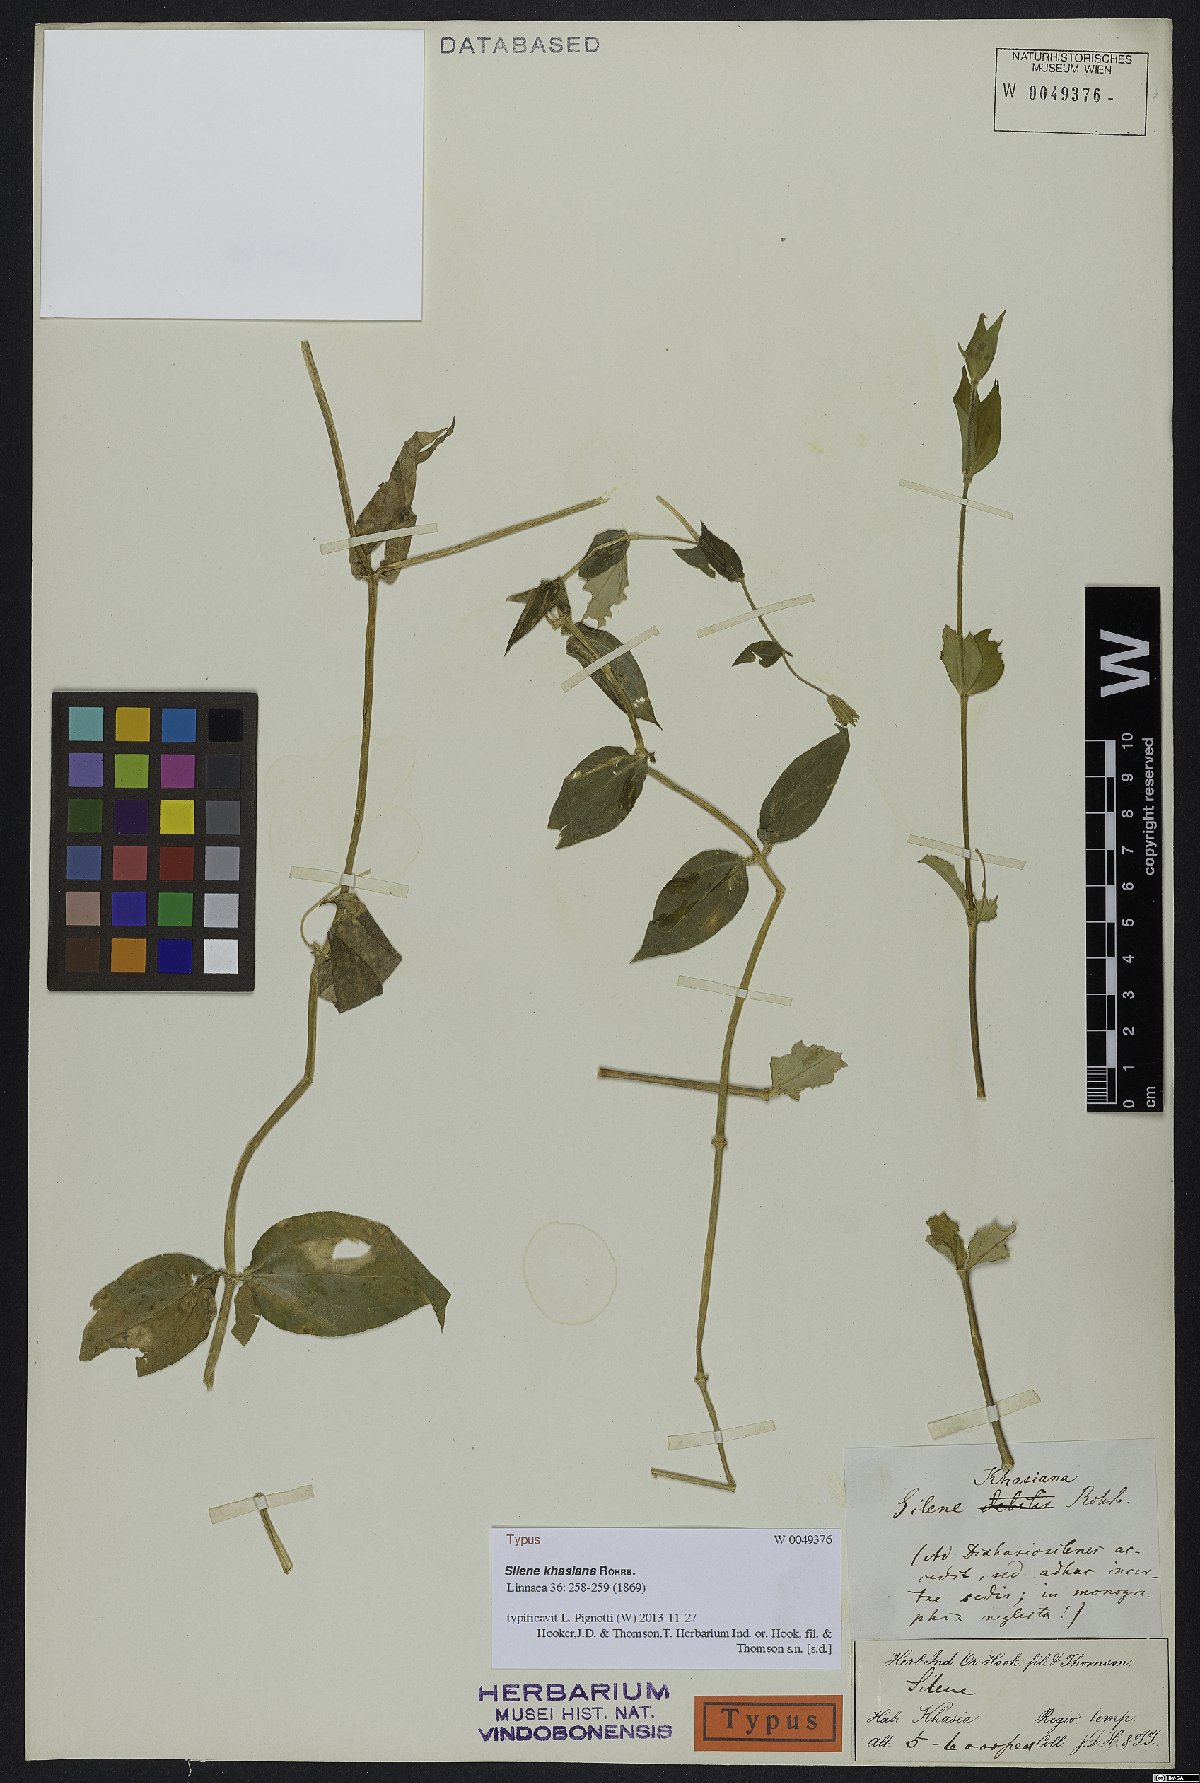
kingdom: Plantae
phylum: Tracheophyta
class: Magnoliopsida
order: Caryophyllales
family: Caryophyllaceae
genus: Silene
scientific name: Silene khasiana
